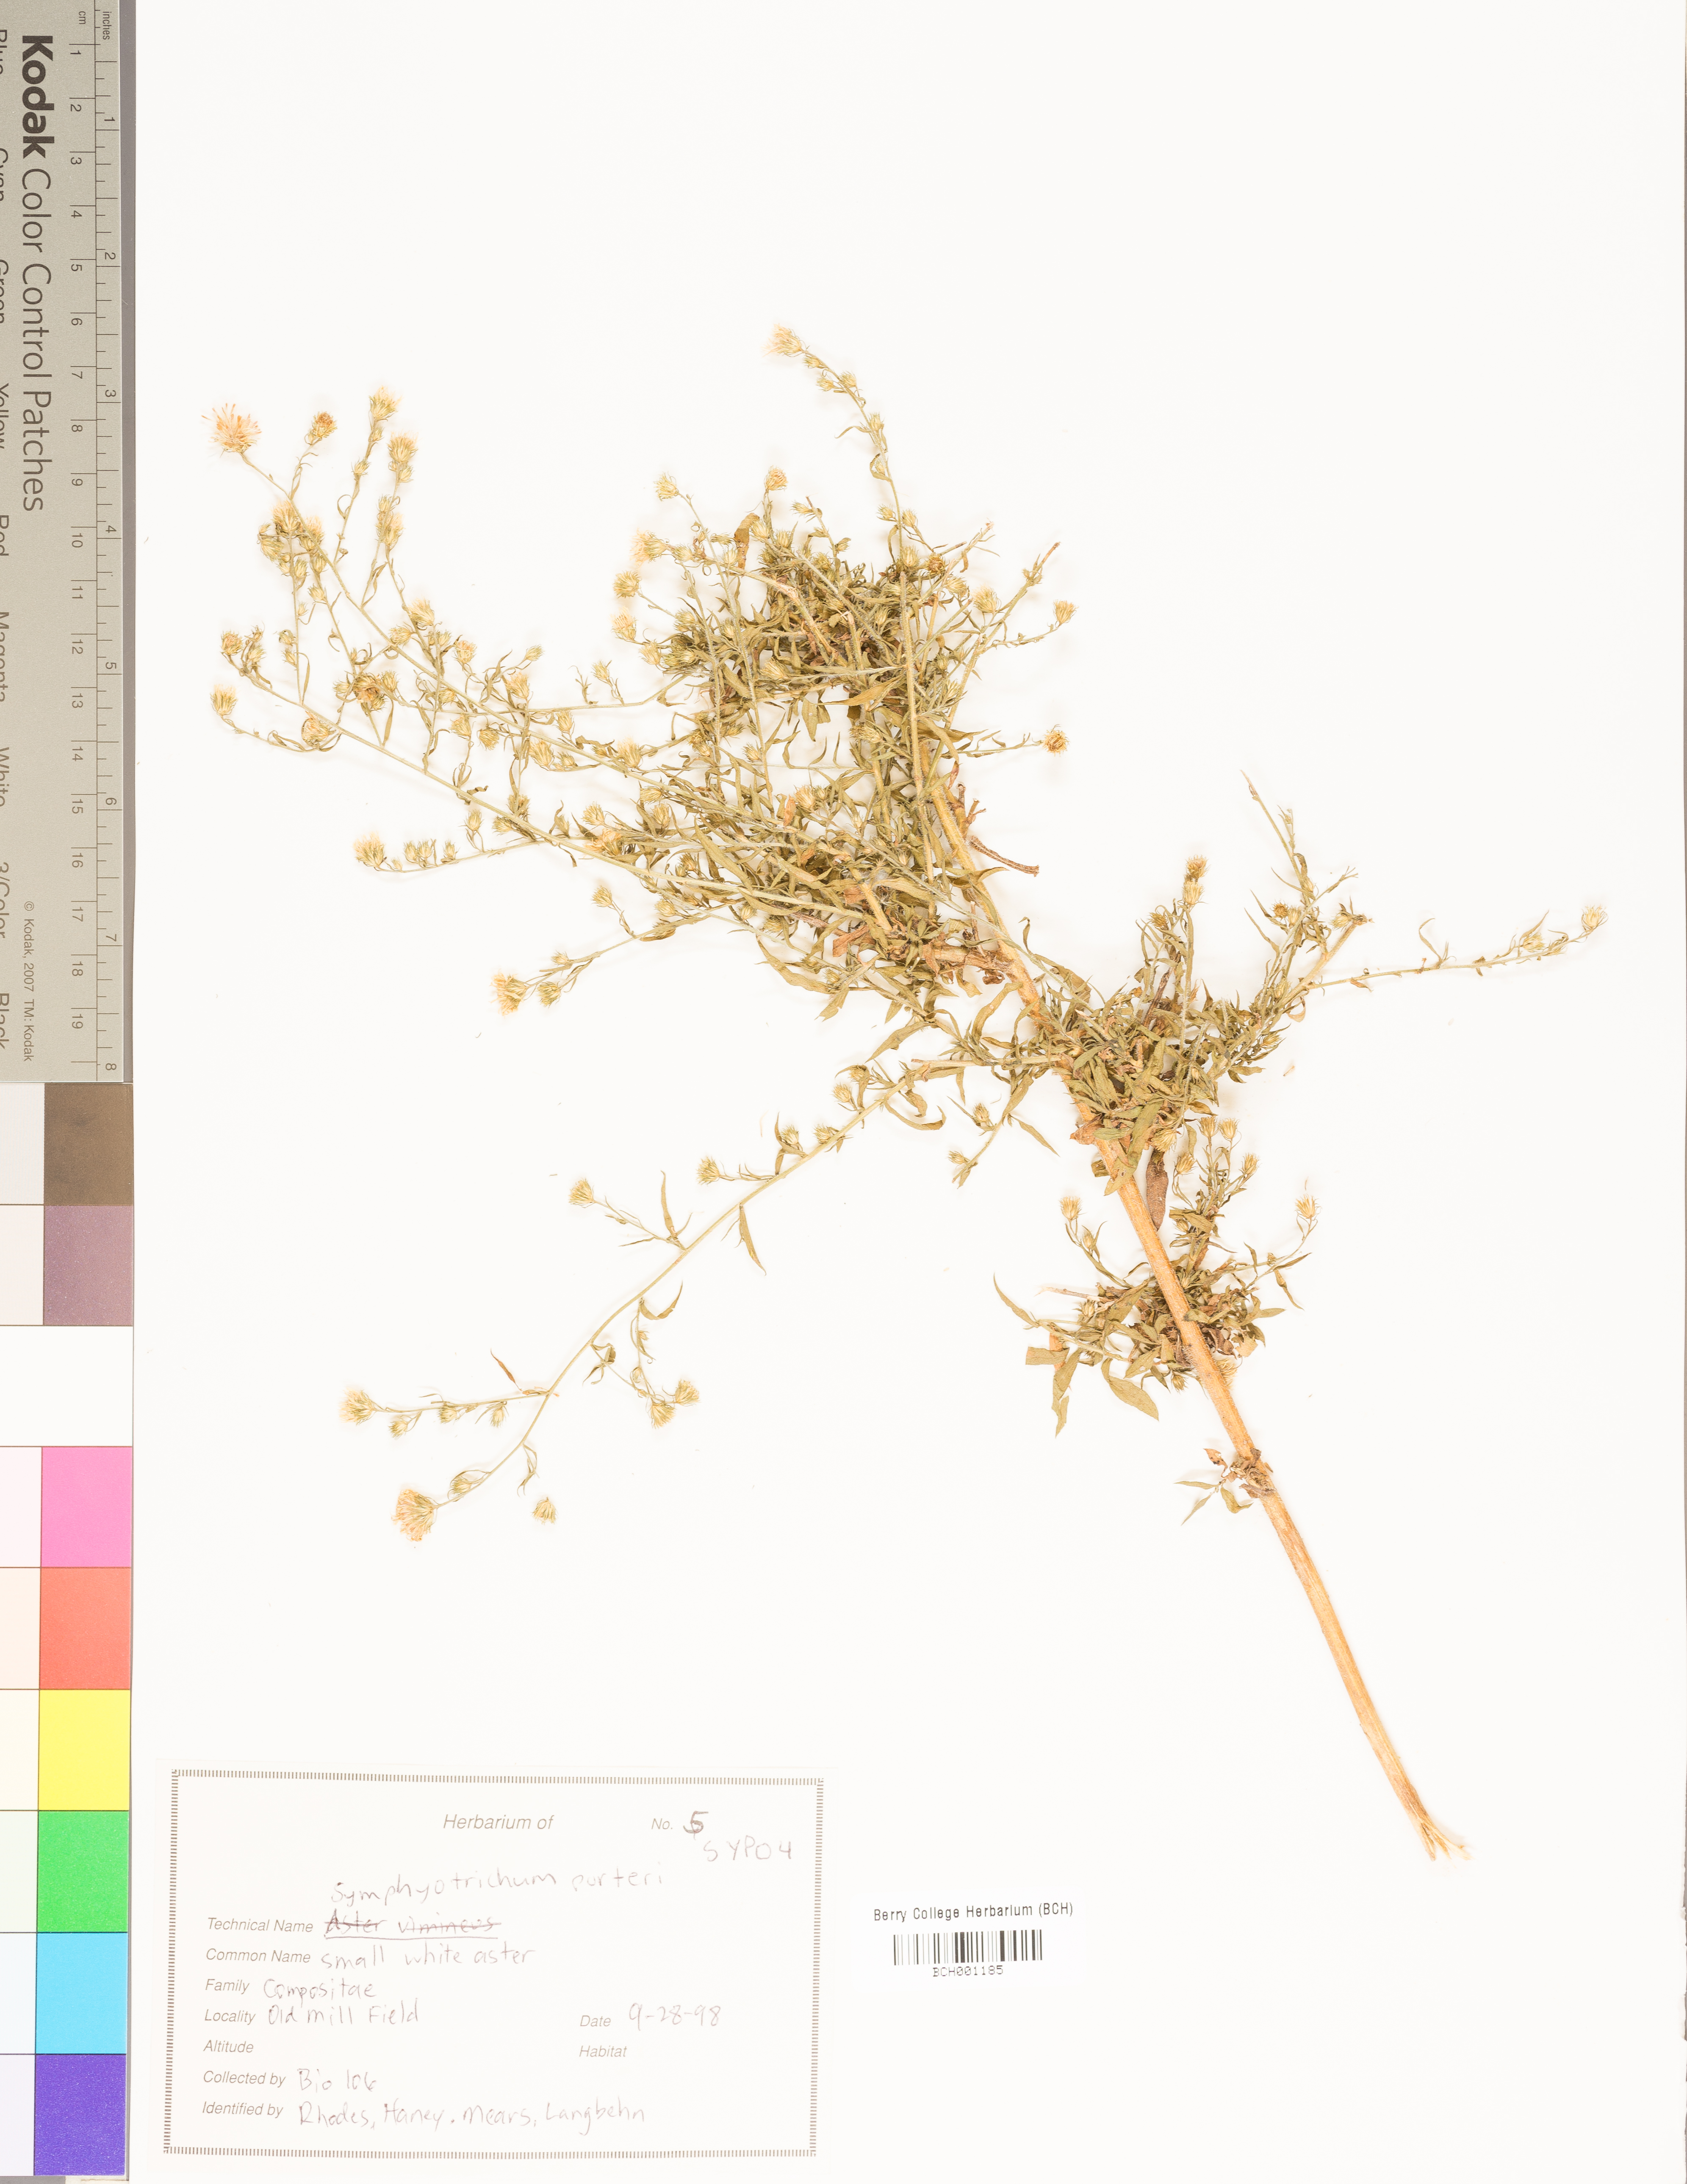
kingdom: Plantae
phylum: Tracheophyta
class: Magnoliopsida
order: Asterales
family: Asteraceae
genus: Symphyotrichum
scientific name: Symphyotrichum porteri
